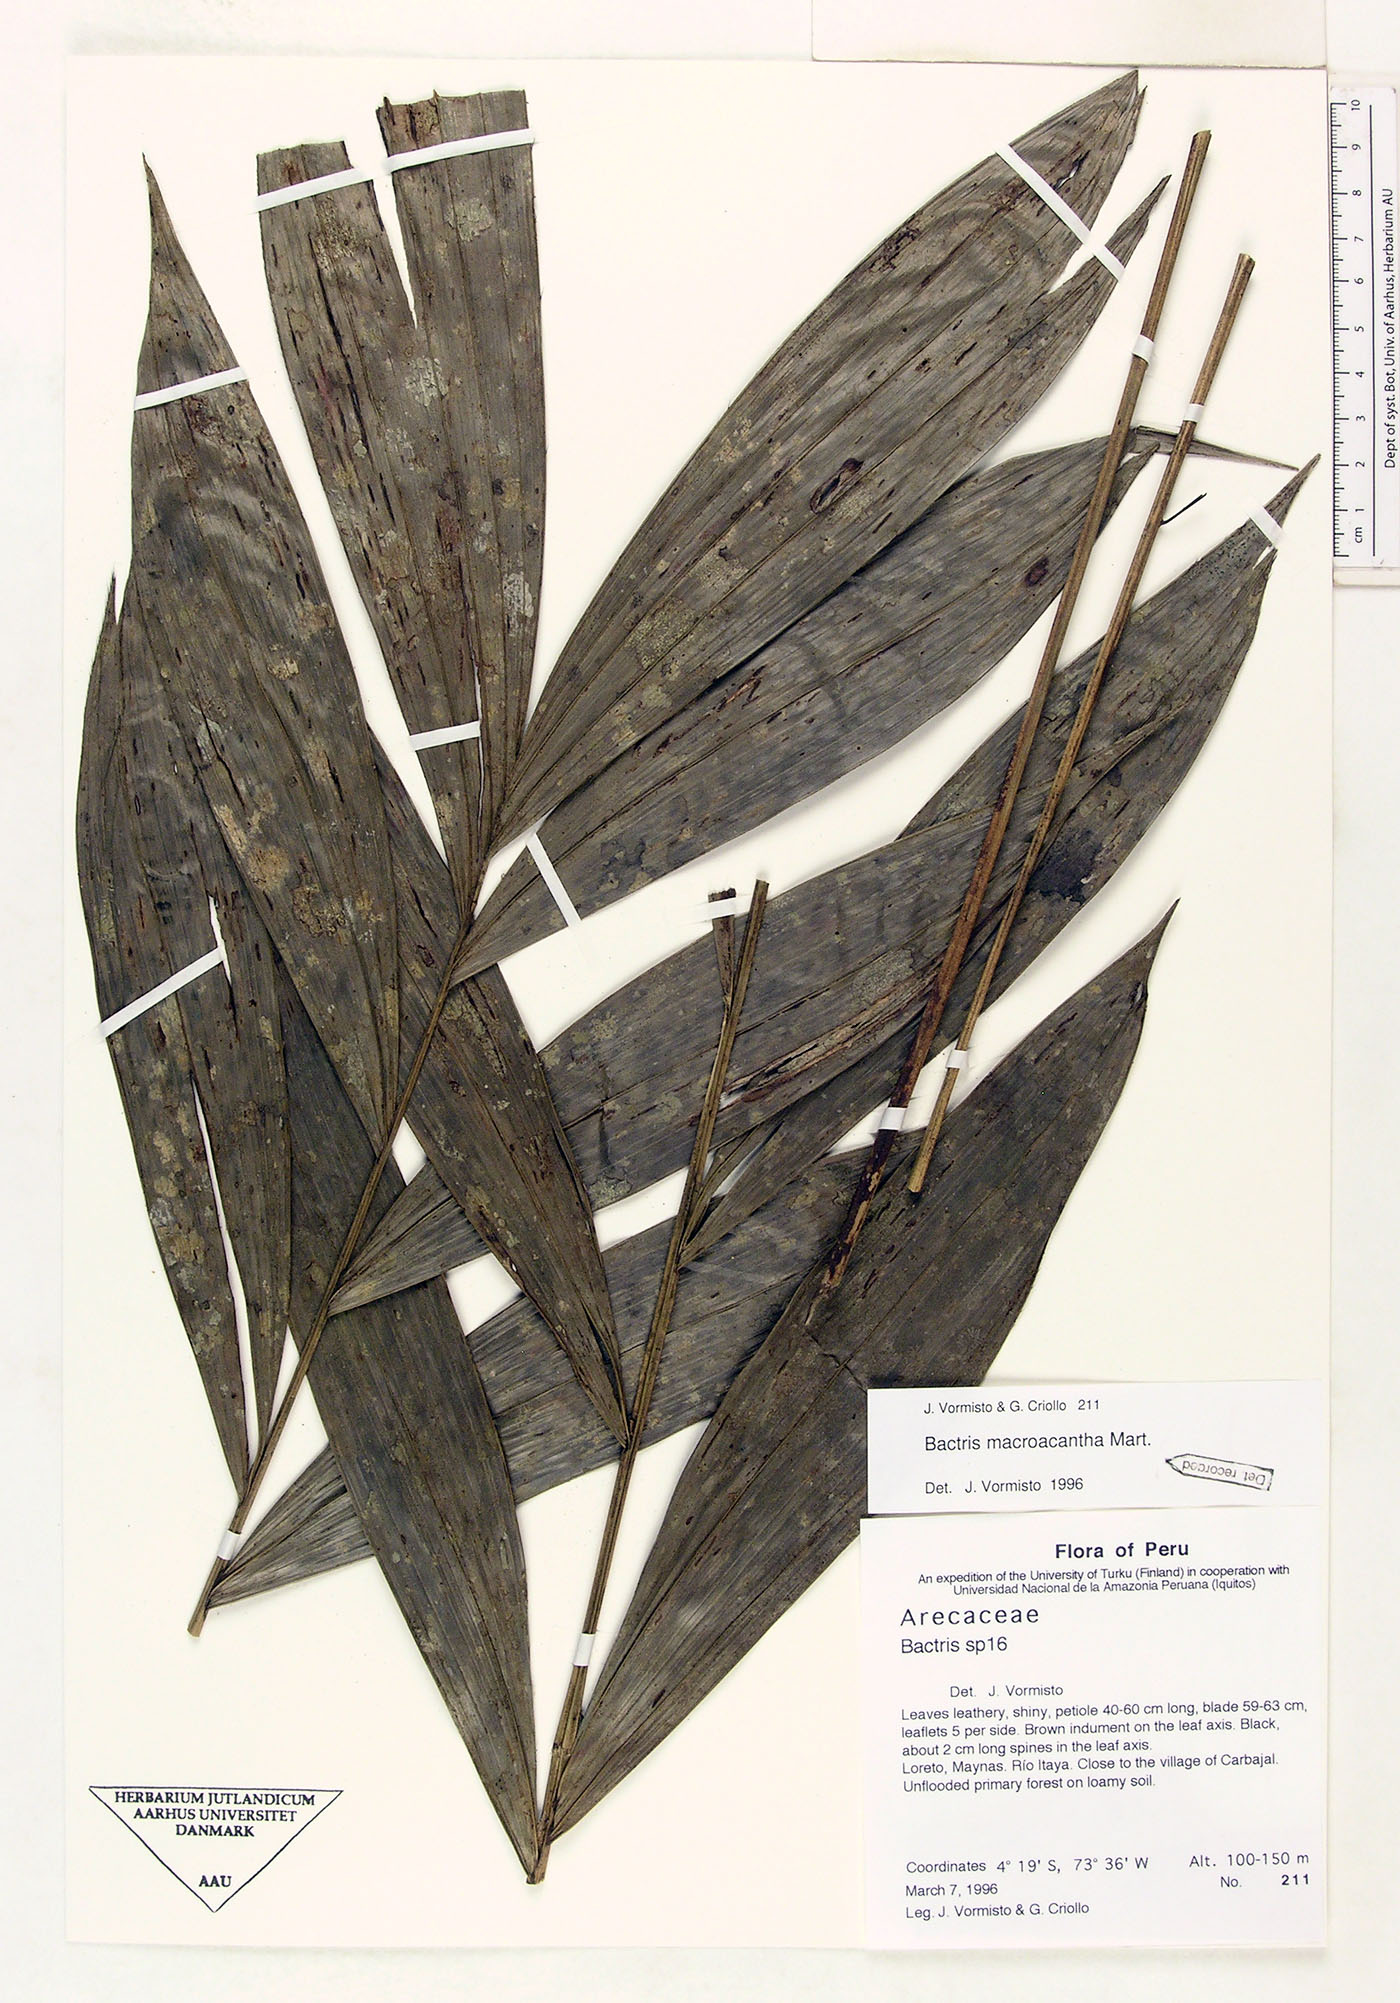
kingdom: Plantae
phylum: Tracheophyta
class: Liliopsida
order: Arecales
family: Arecaceae
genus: Bactris
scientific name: Bactris macroacantha
